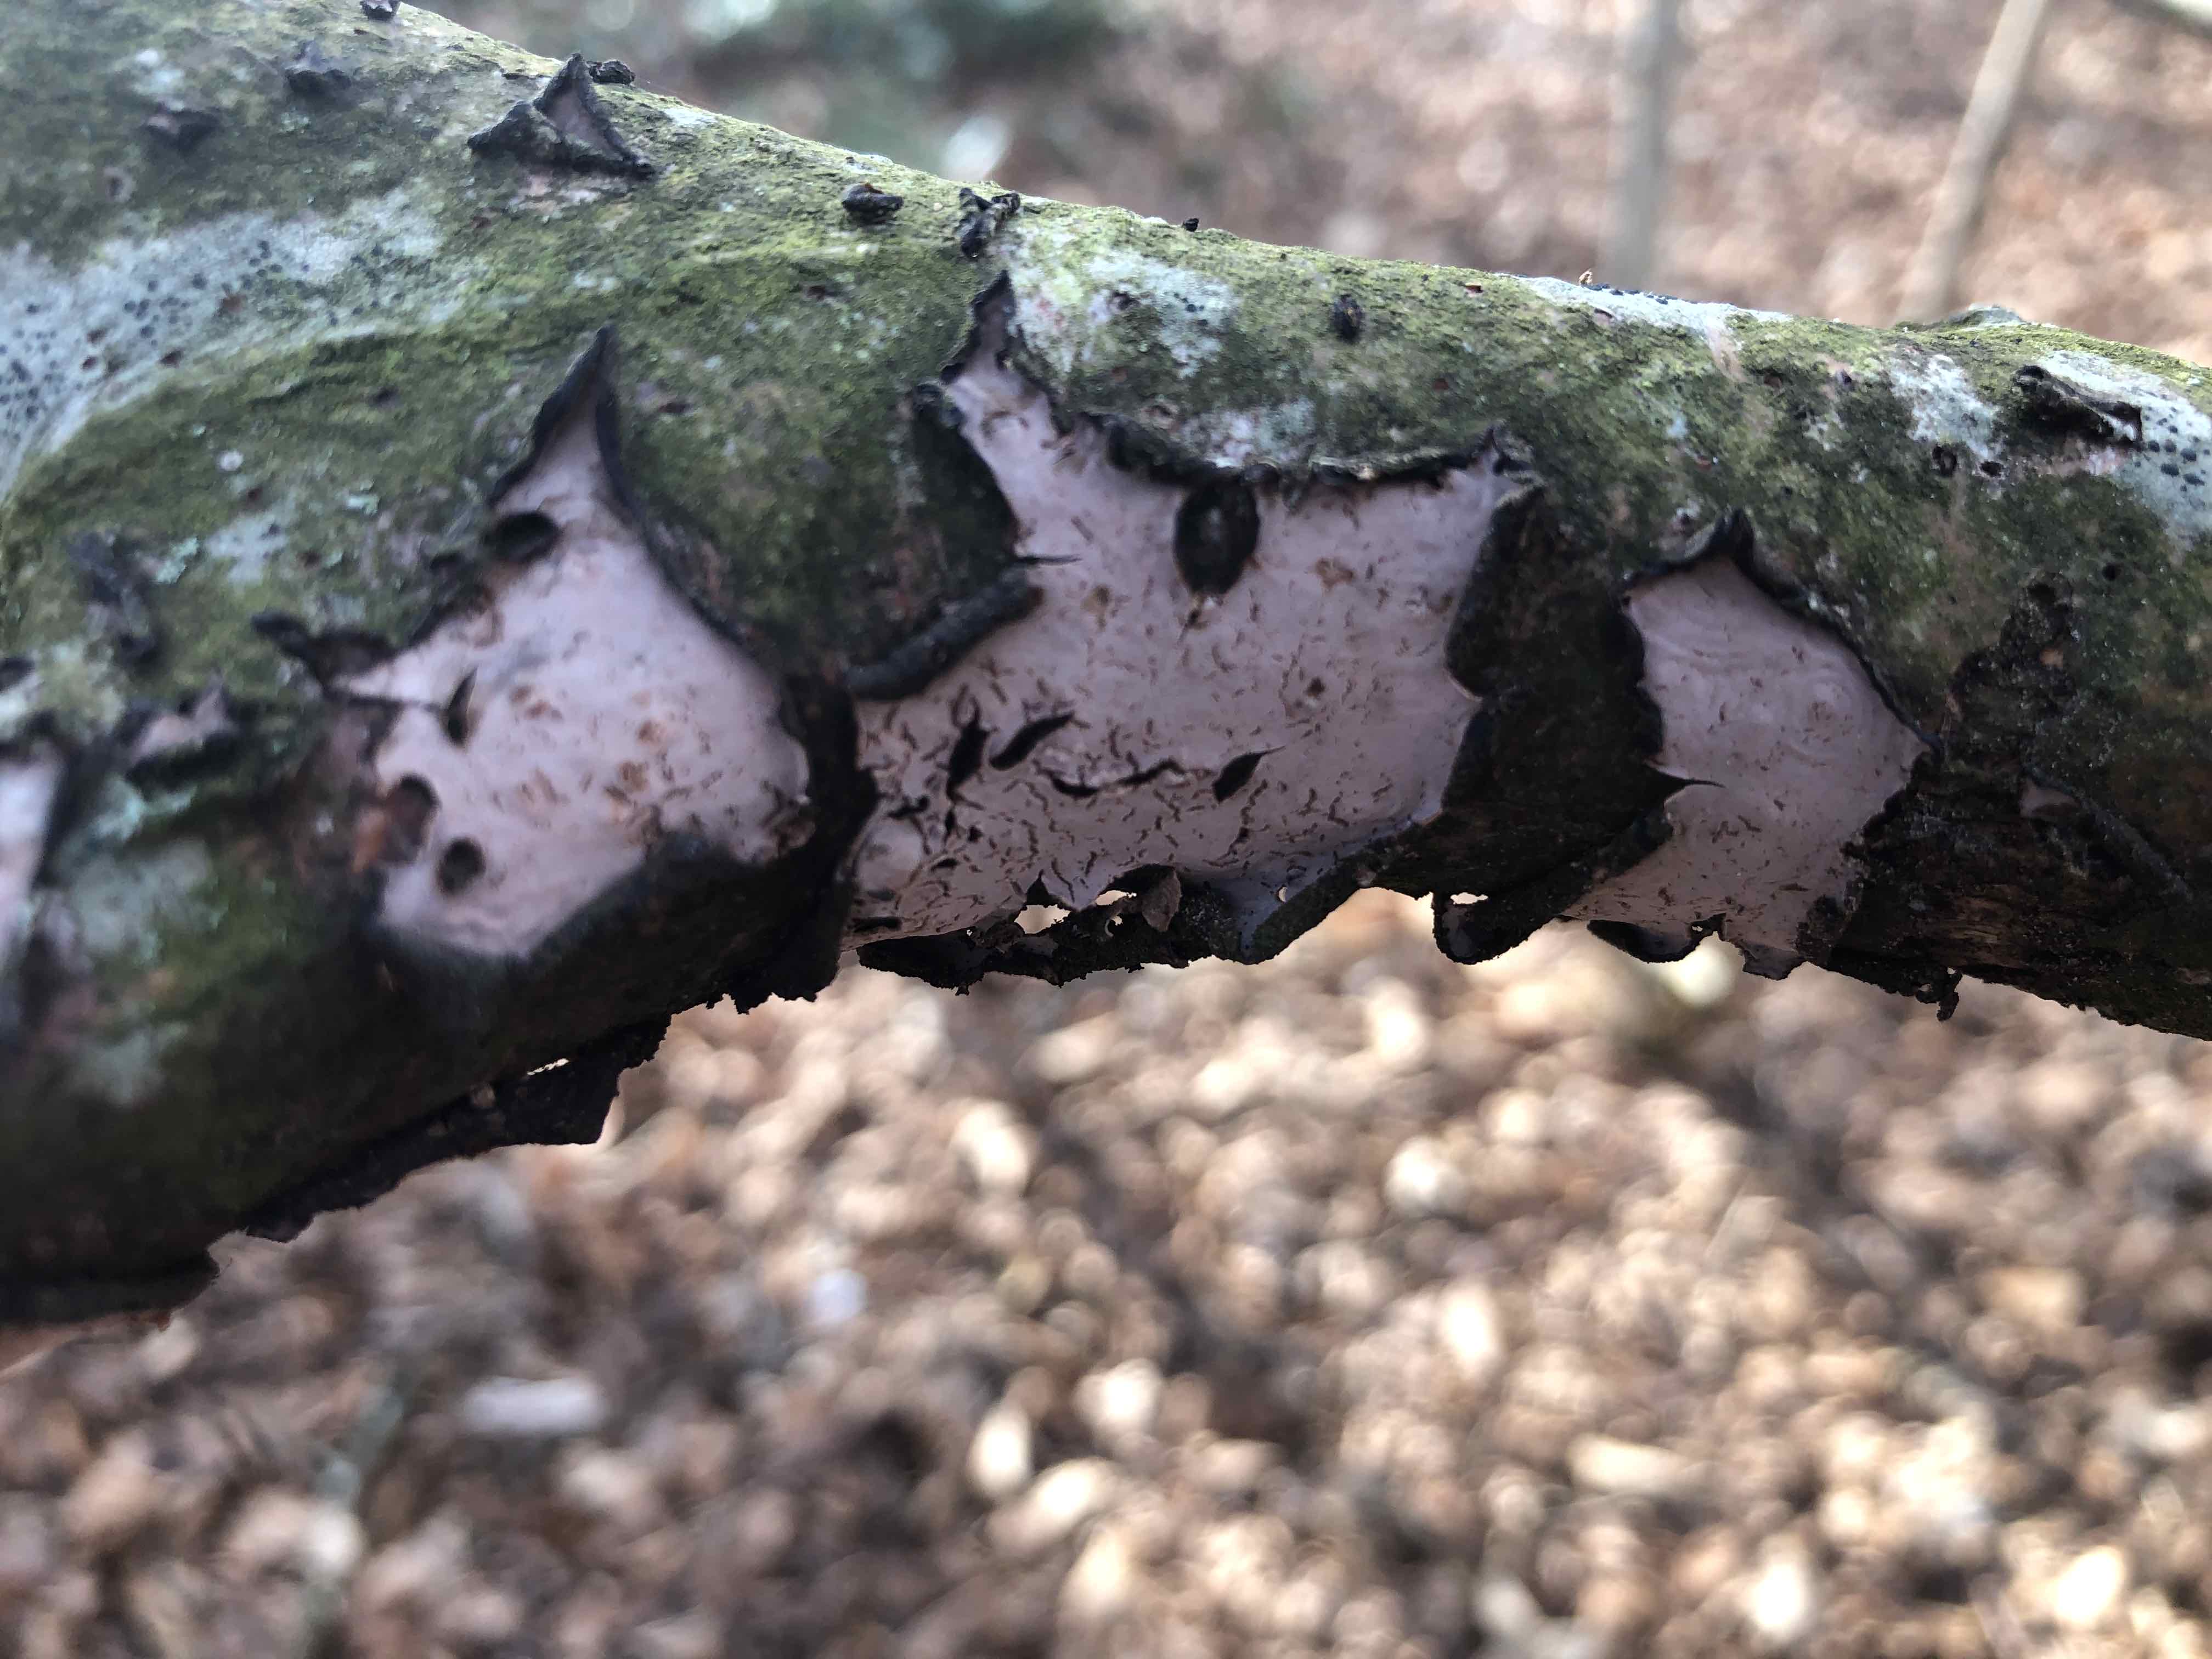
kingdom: Fungi
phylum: Basidiomycota
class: Agaricomycetes
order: Russulales
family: Peniophoraceae
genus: Peniophora
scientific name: Peniophora quercina
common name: ege-voksskind
